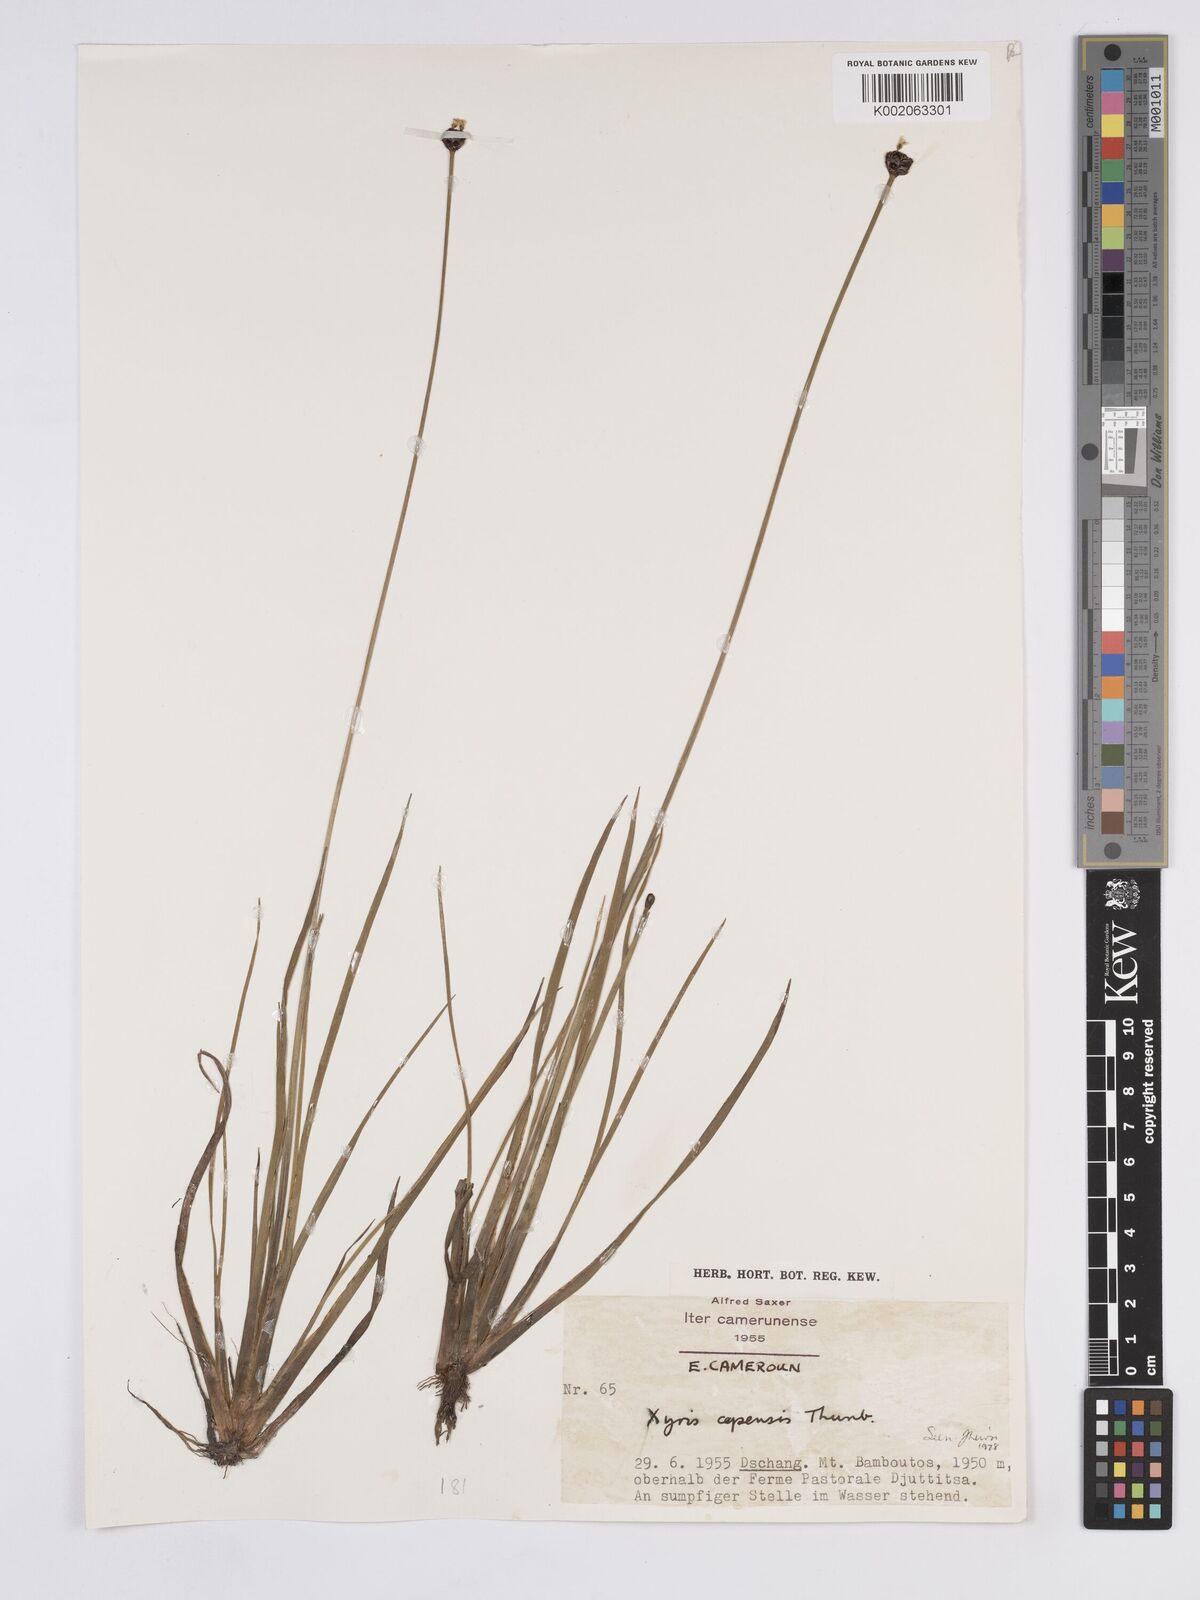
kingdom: Plantae
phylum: Tracheophyta
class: Liliopsida
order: Poales
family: Xyridaceae
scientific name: Xyridaceae
